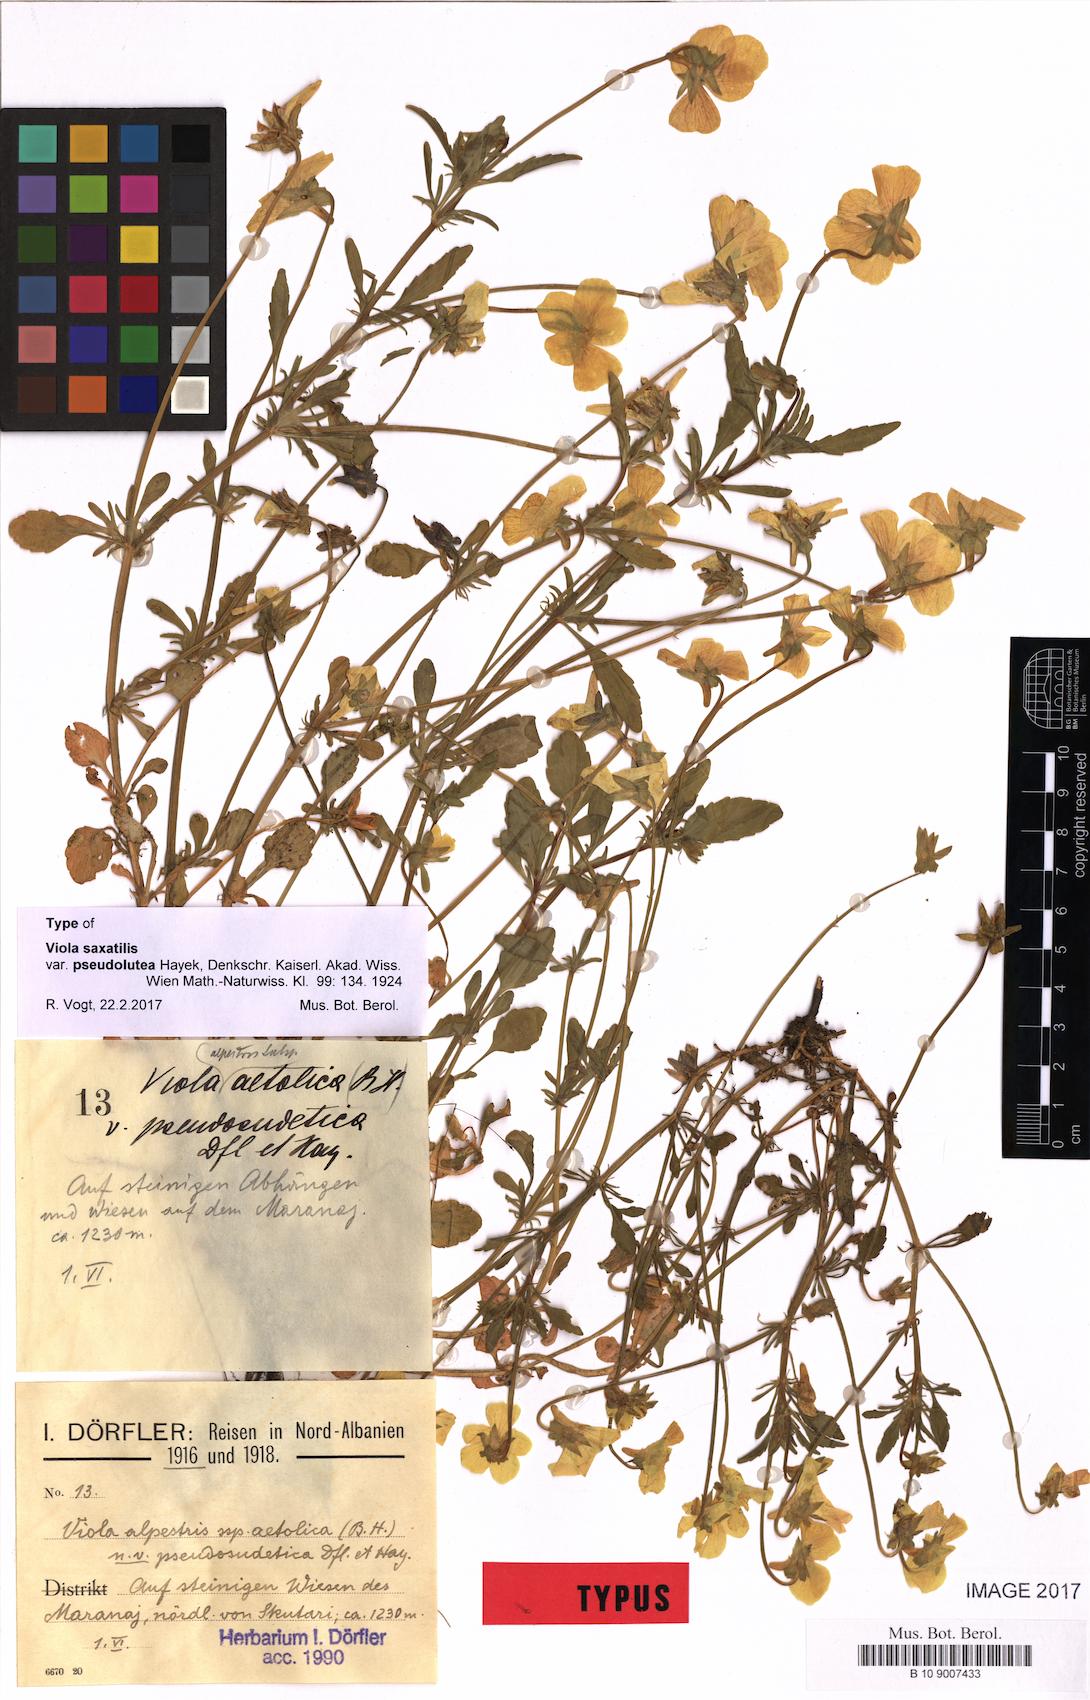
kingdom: Plantae
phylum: Tracheophyta
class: Magnoliopsida
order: Malpighiales
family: Violaceae
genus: Viola
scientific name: Viola aetolica
